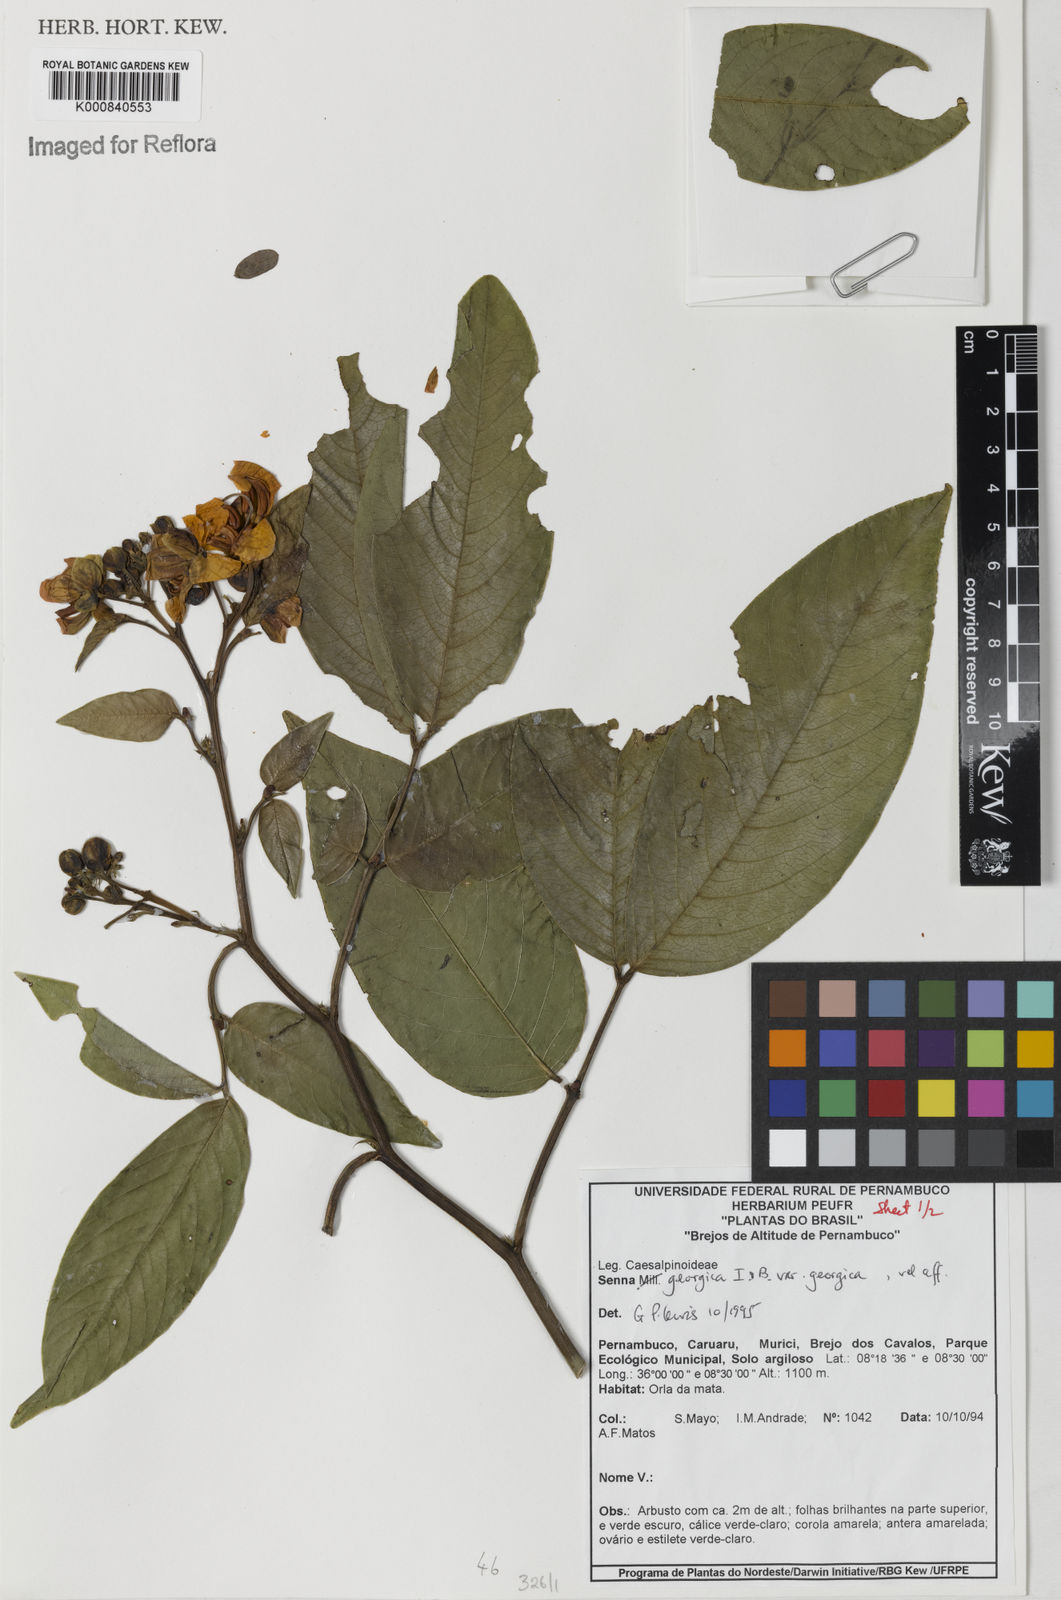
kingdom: Plantae
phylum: Tracheophyta
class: Magnoliopsida
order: Fabales
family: Fabaceae
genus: Senna
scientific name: Senna georgica
